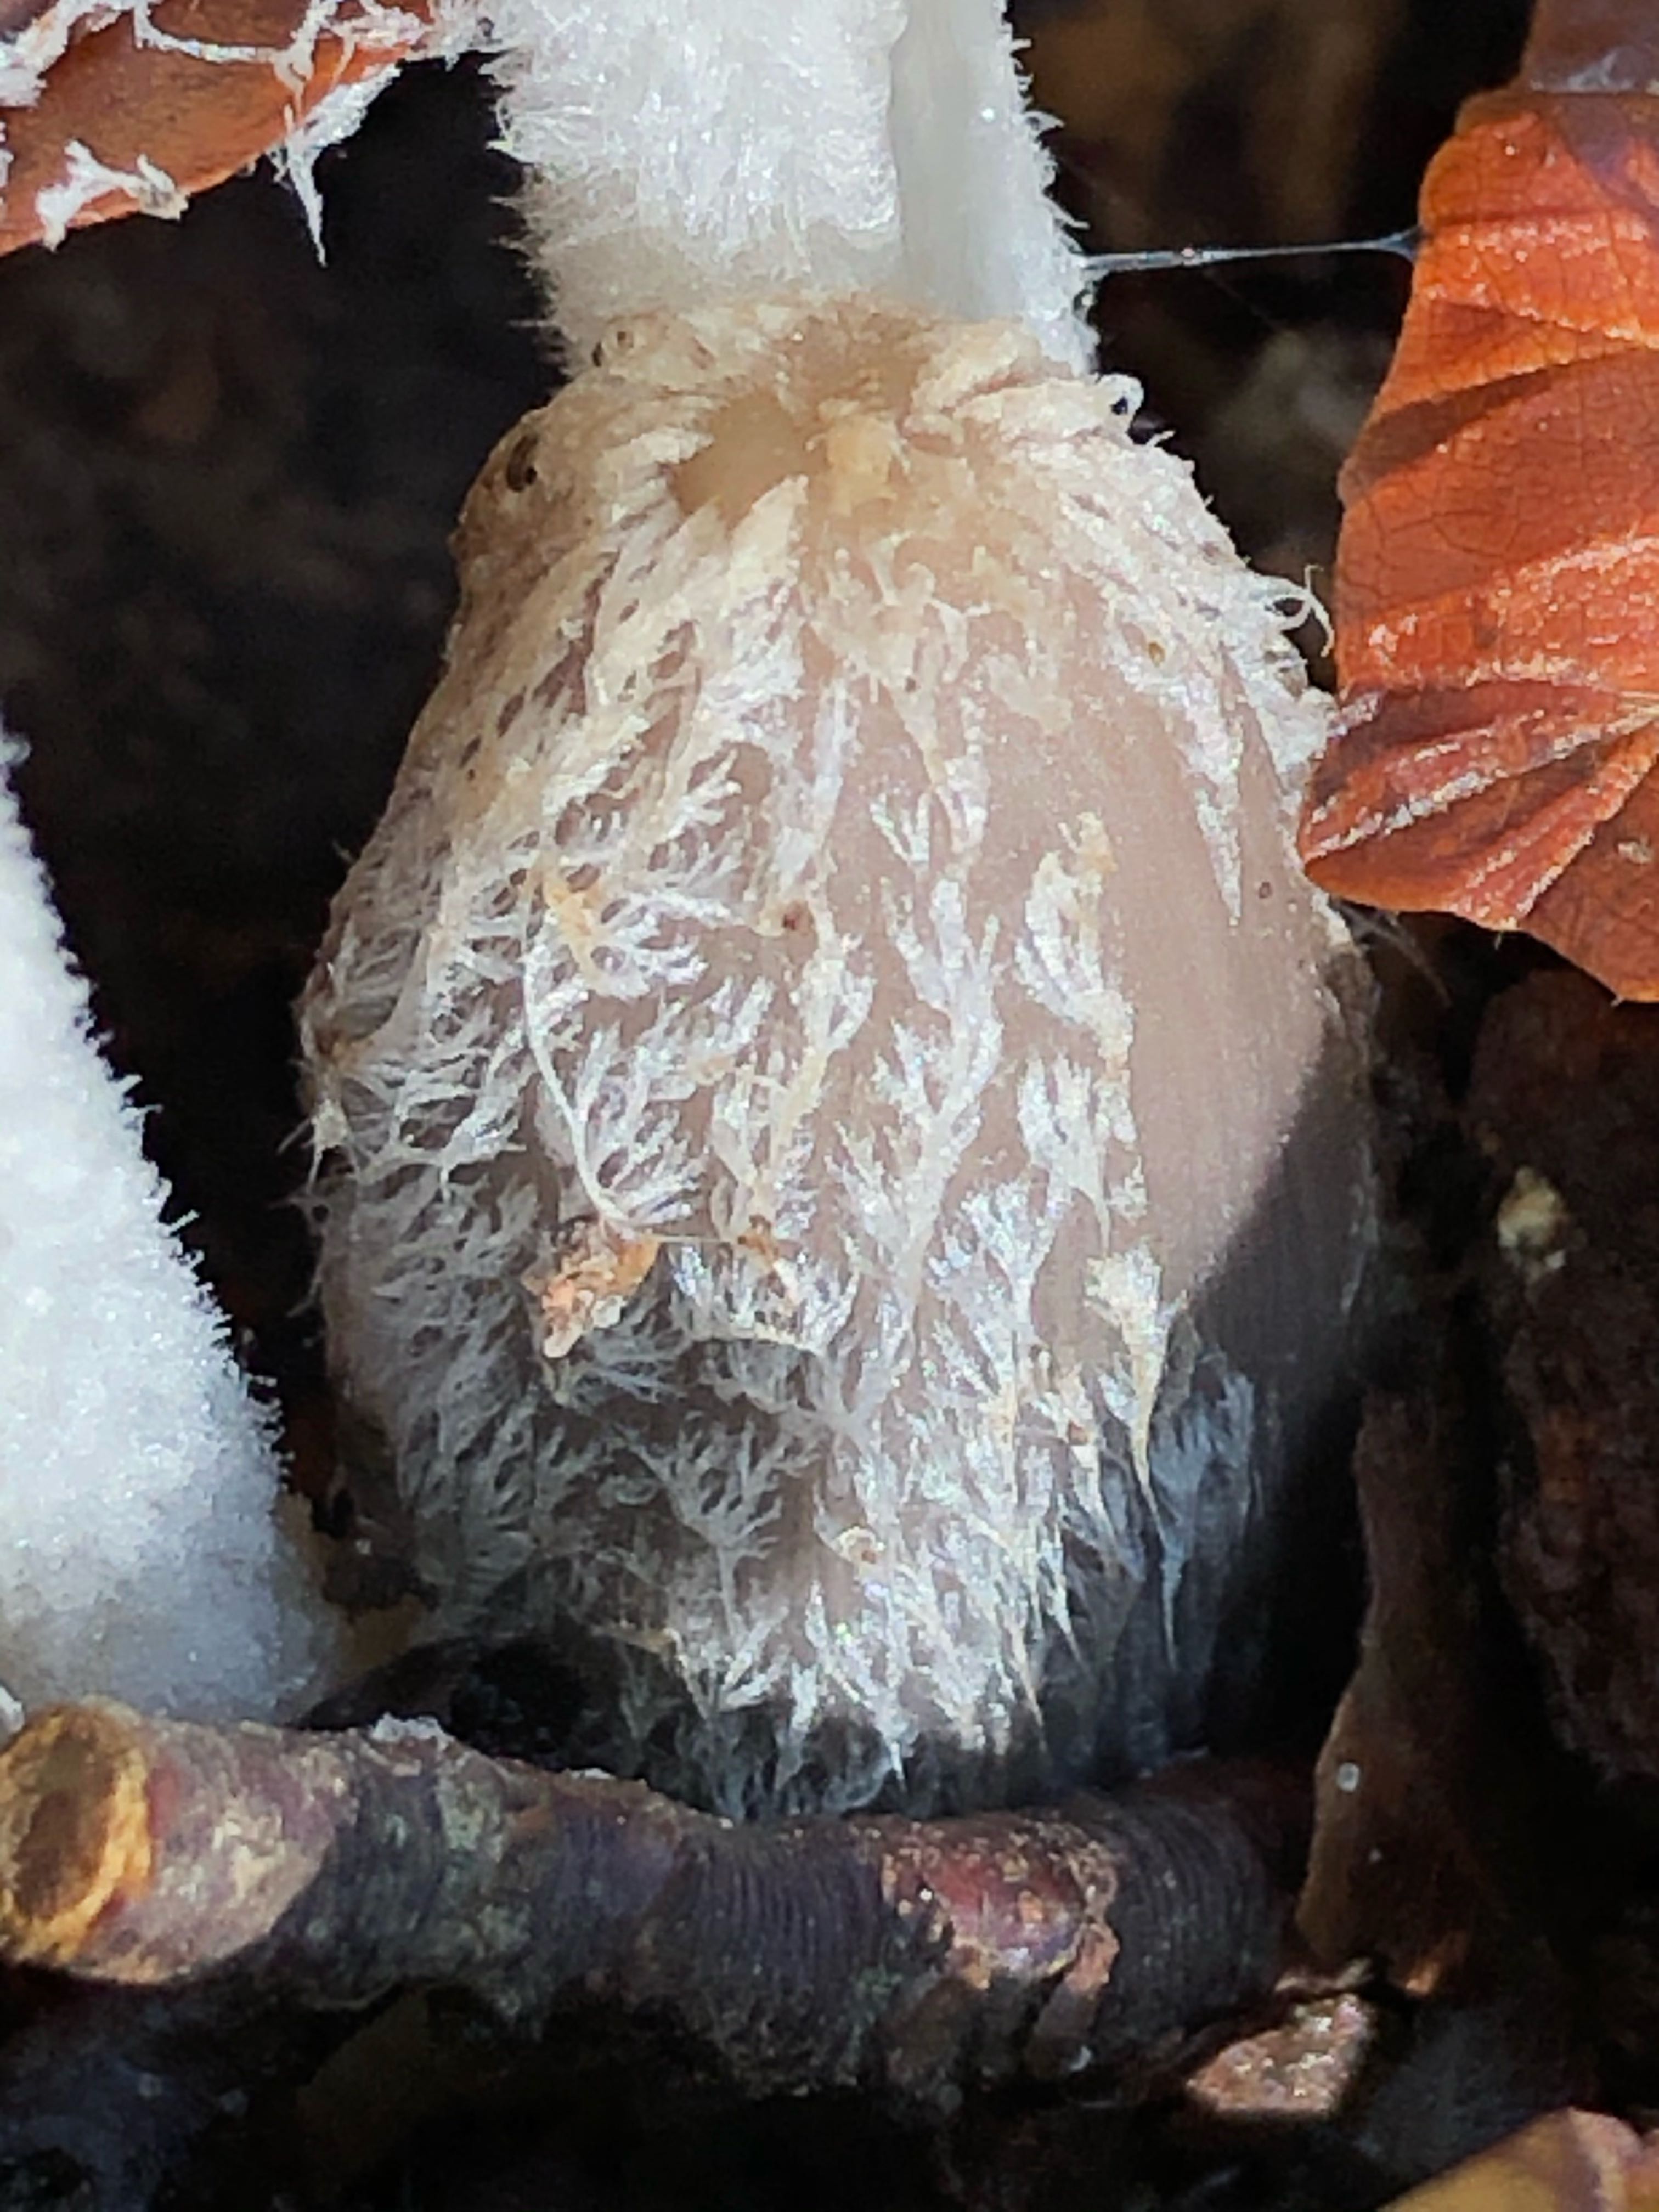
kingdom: Fungi
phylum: Basidiomycota
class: Agaricomycetes
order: Agaricales
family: Psathyrellaceae
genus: Coprinopsis
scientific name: Coprinopsis lagopus
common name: dunstokket blækhat
